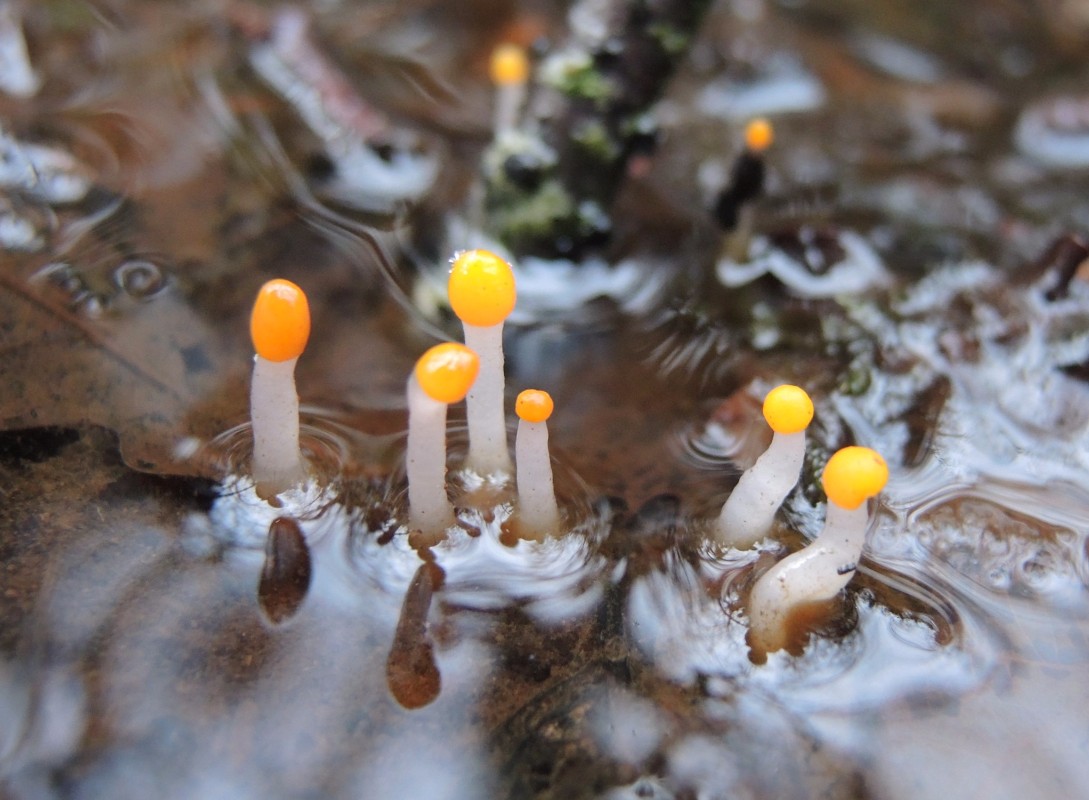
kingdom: Fungi
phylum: Ascomycota
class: Leotiomycetes
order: Helotiales
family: Cenangiaceae
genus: Mitrula
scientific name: Mitrula paludosa
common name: gul nøkketunge
